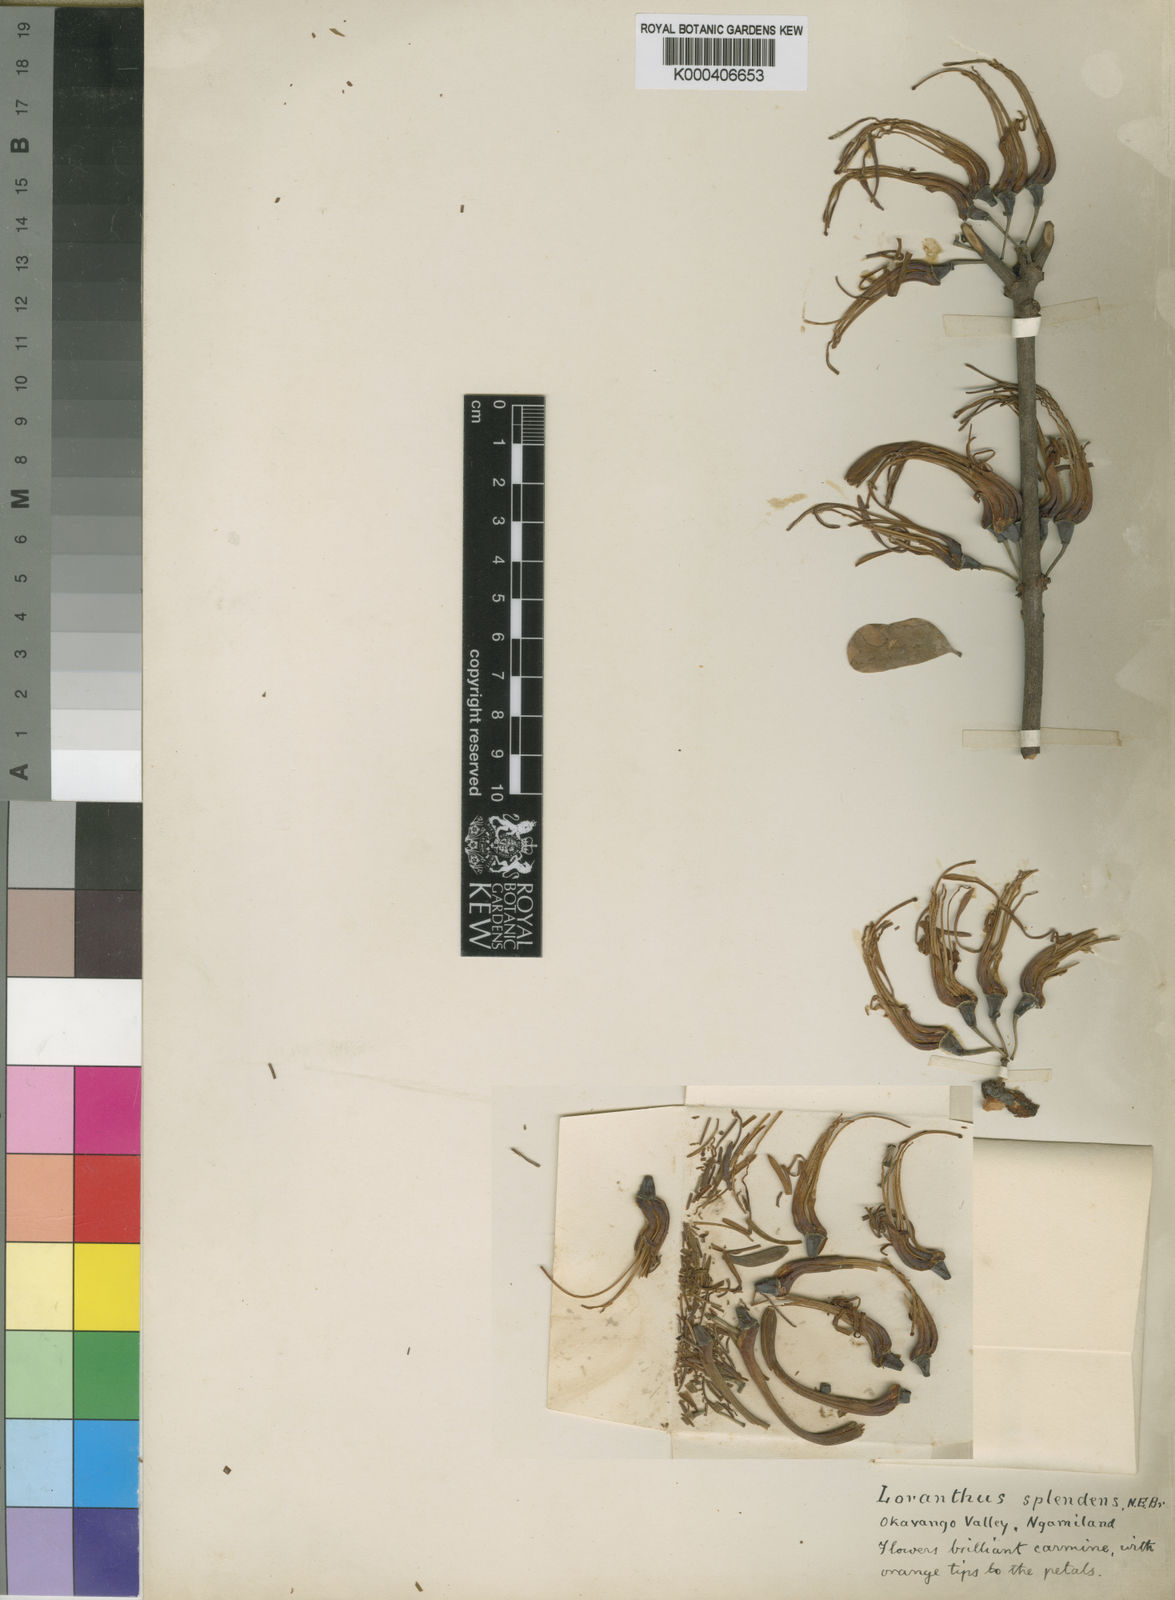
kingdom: Plantae
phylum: Tracheophyta
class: Magnoliopsida
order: Santalales
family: Loranthaceae
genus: Plicosepalus
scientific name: Plicosepalus kalachariensis
